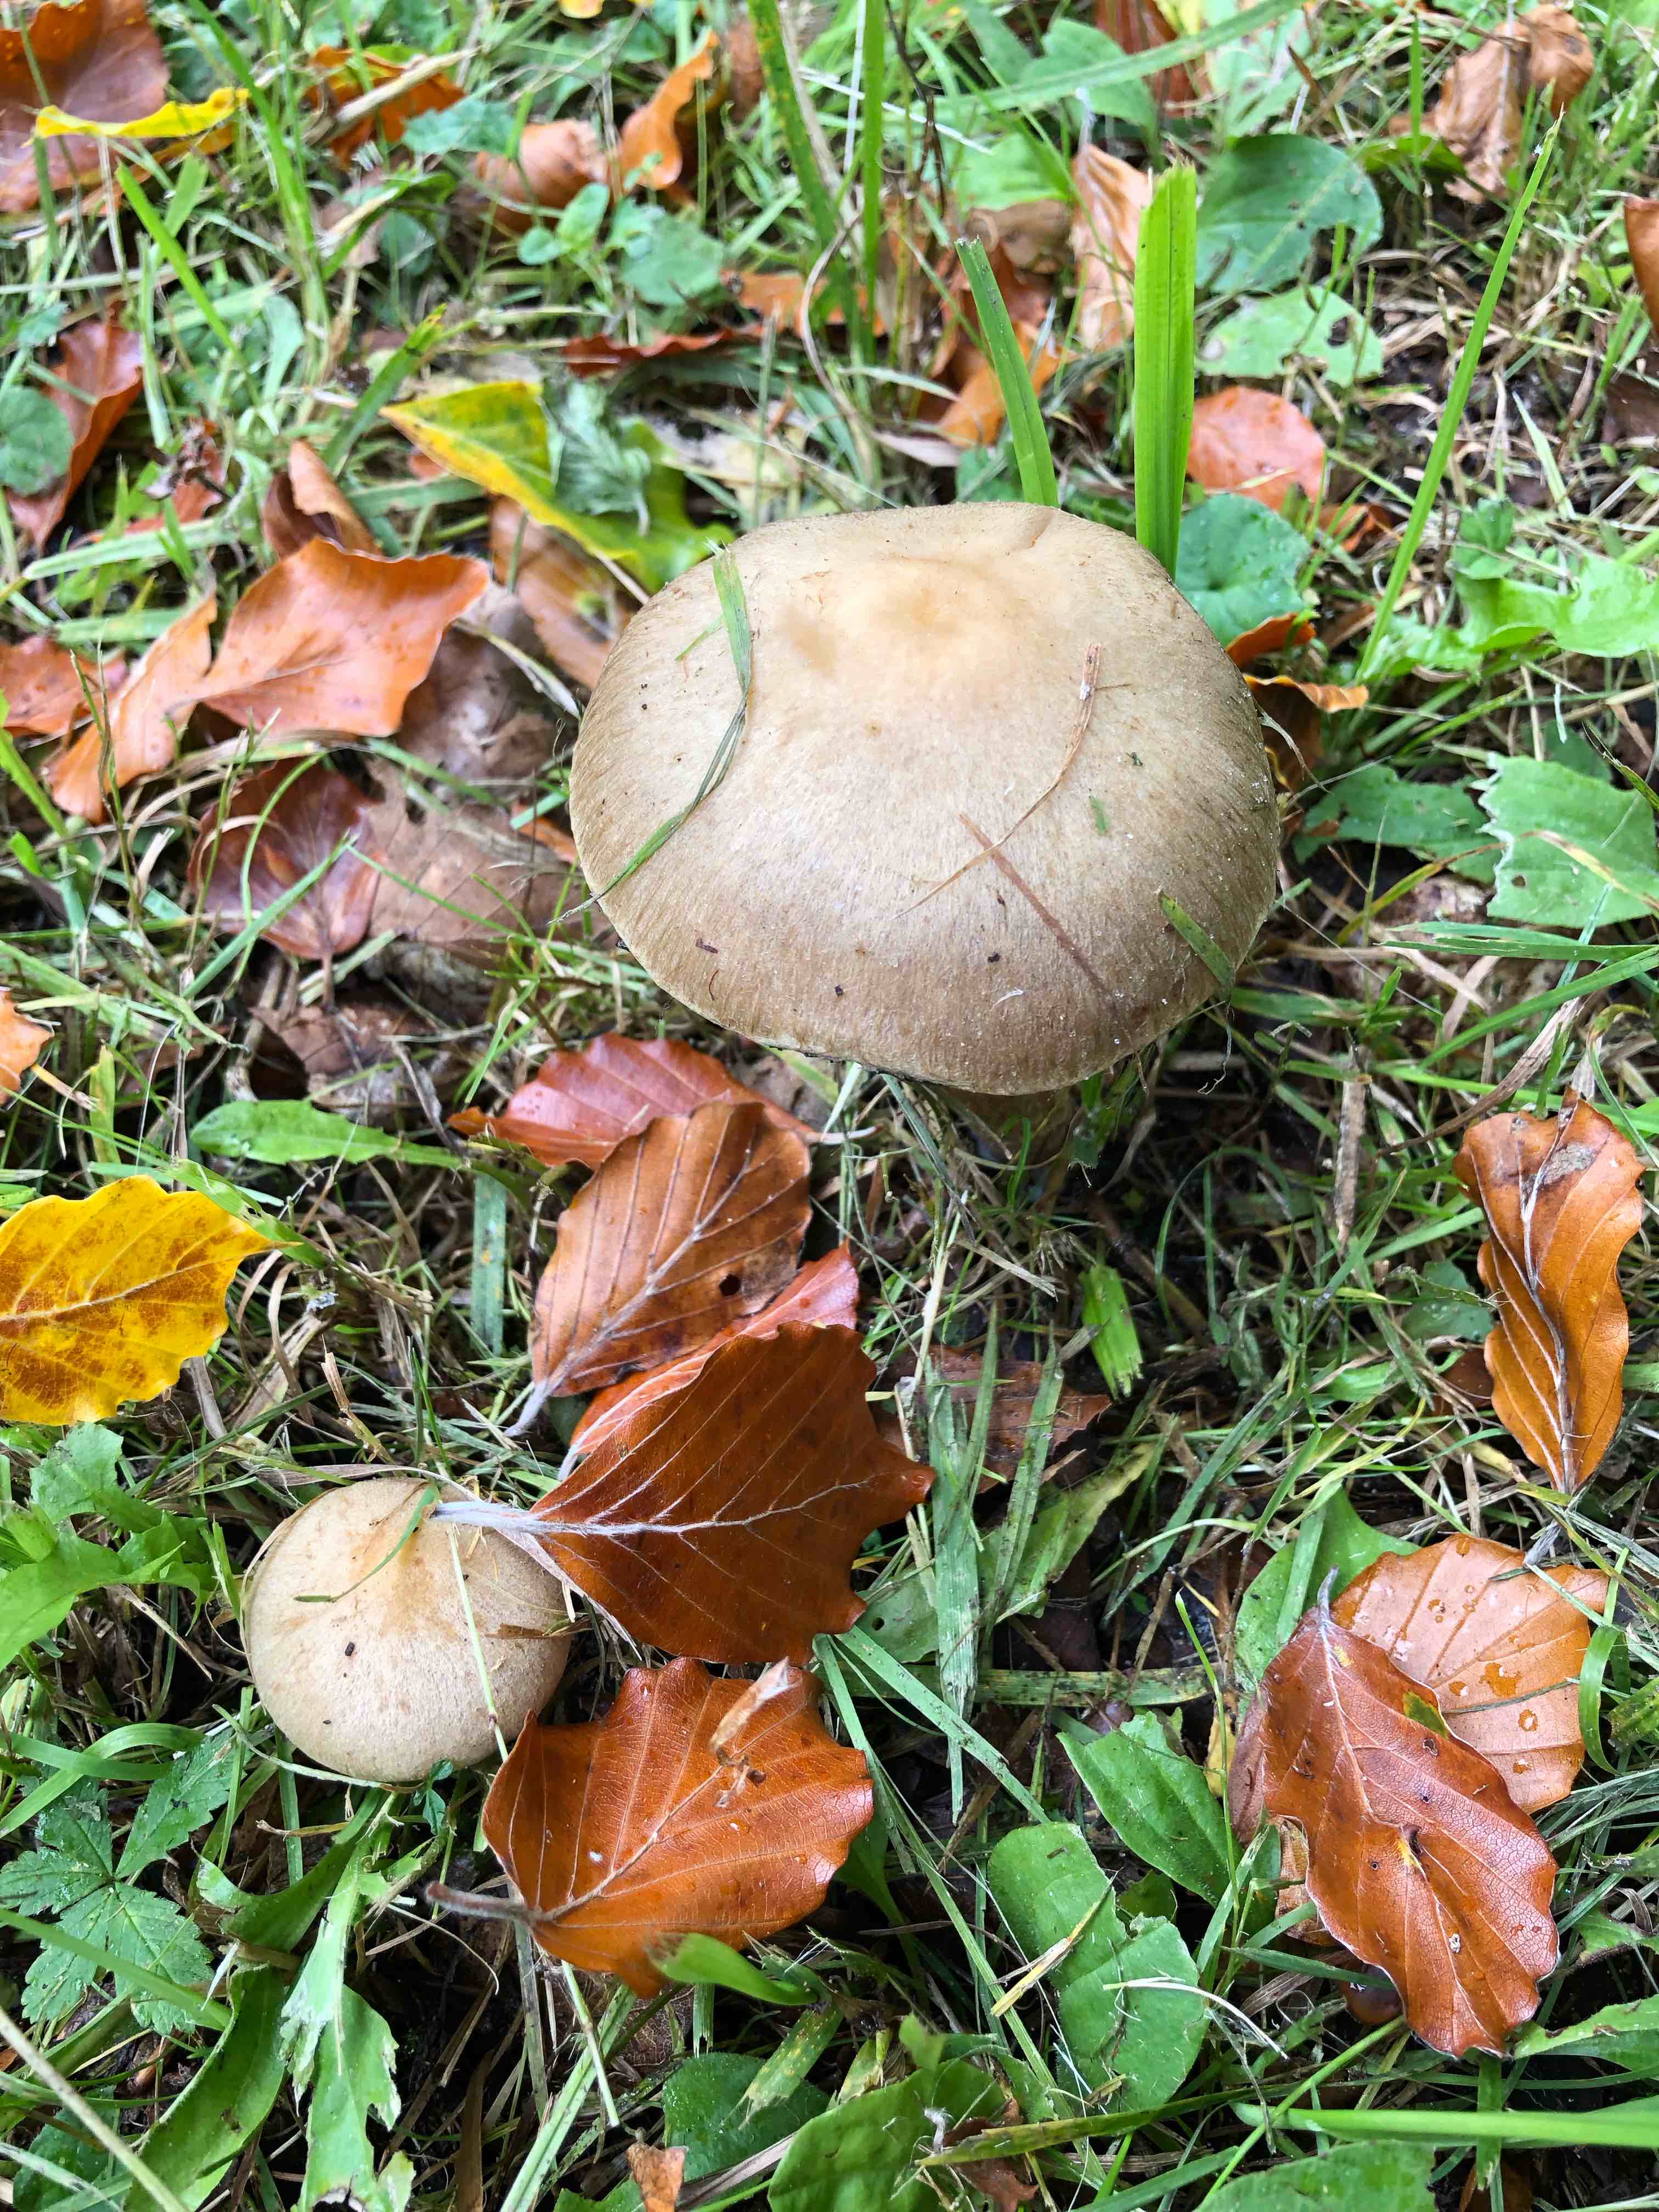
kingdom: Fungi
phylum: Basidiomycota
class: Agaricomycetes
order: Agaricales
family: Psathyrellaceae
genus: Lacrymaria
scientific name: Lacrymaria lacrymabunda
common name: grædende mørkhat
